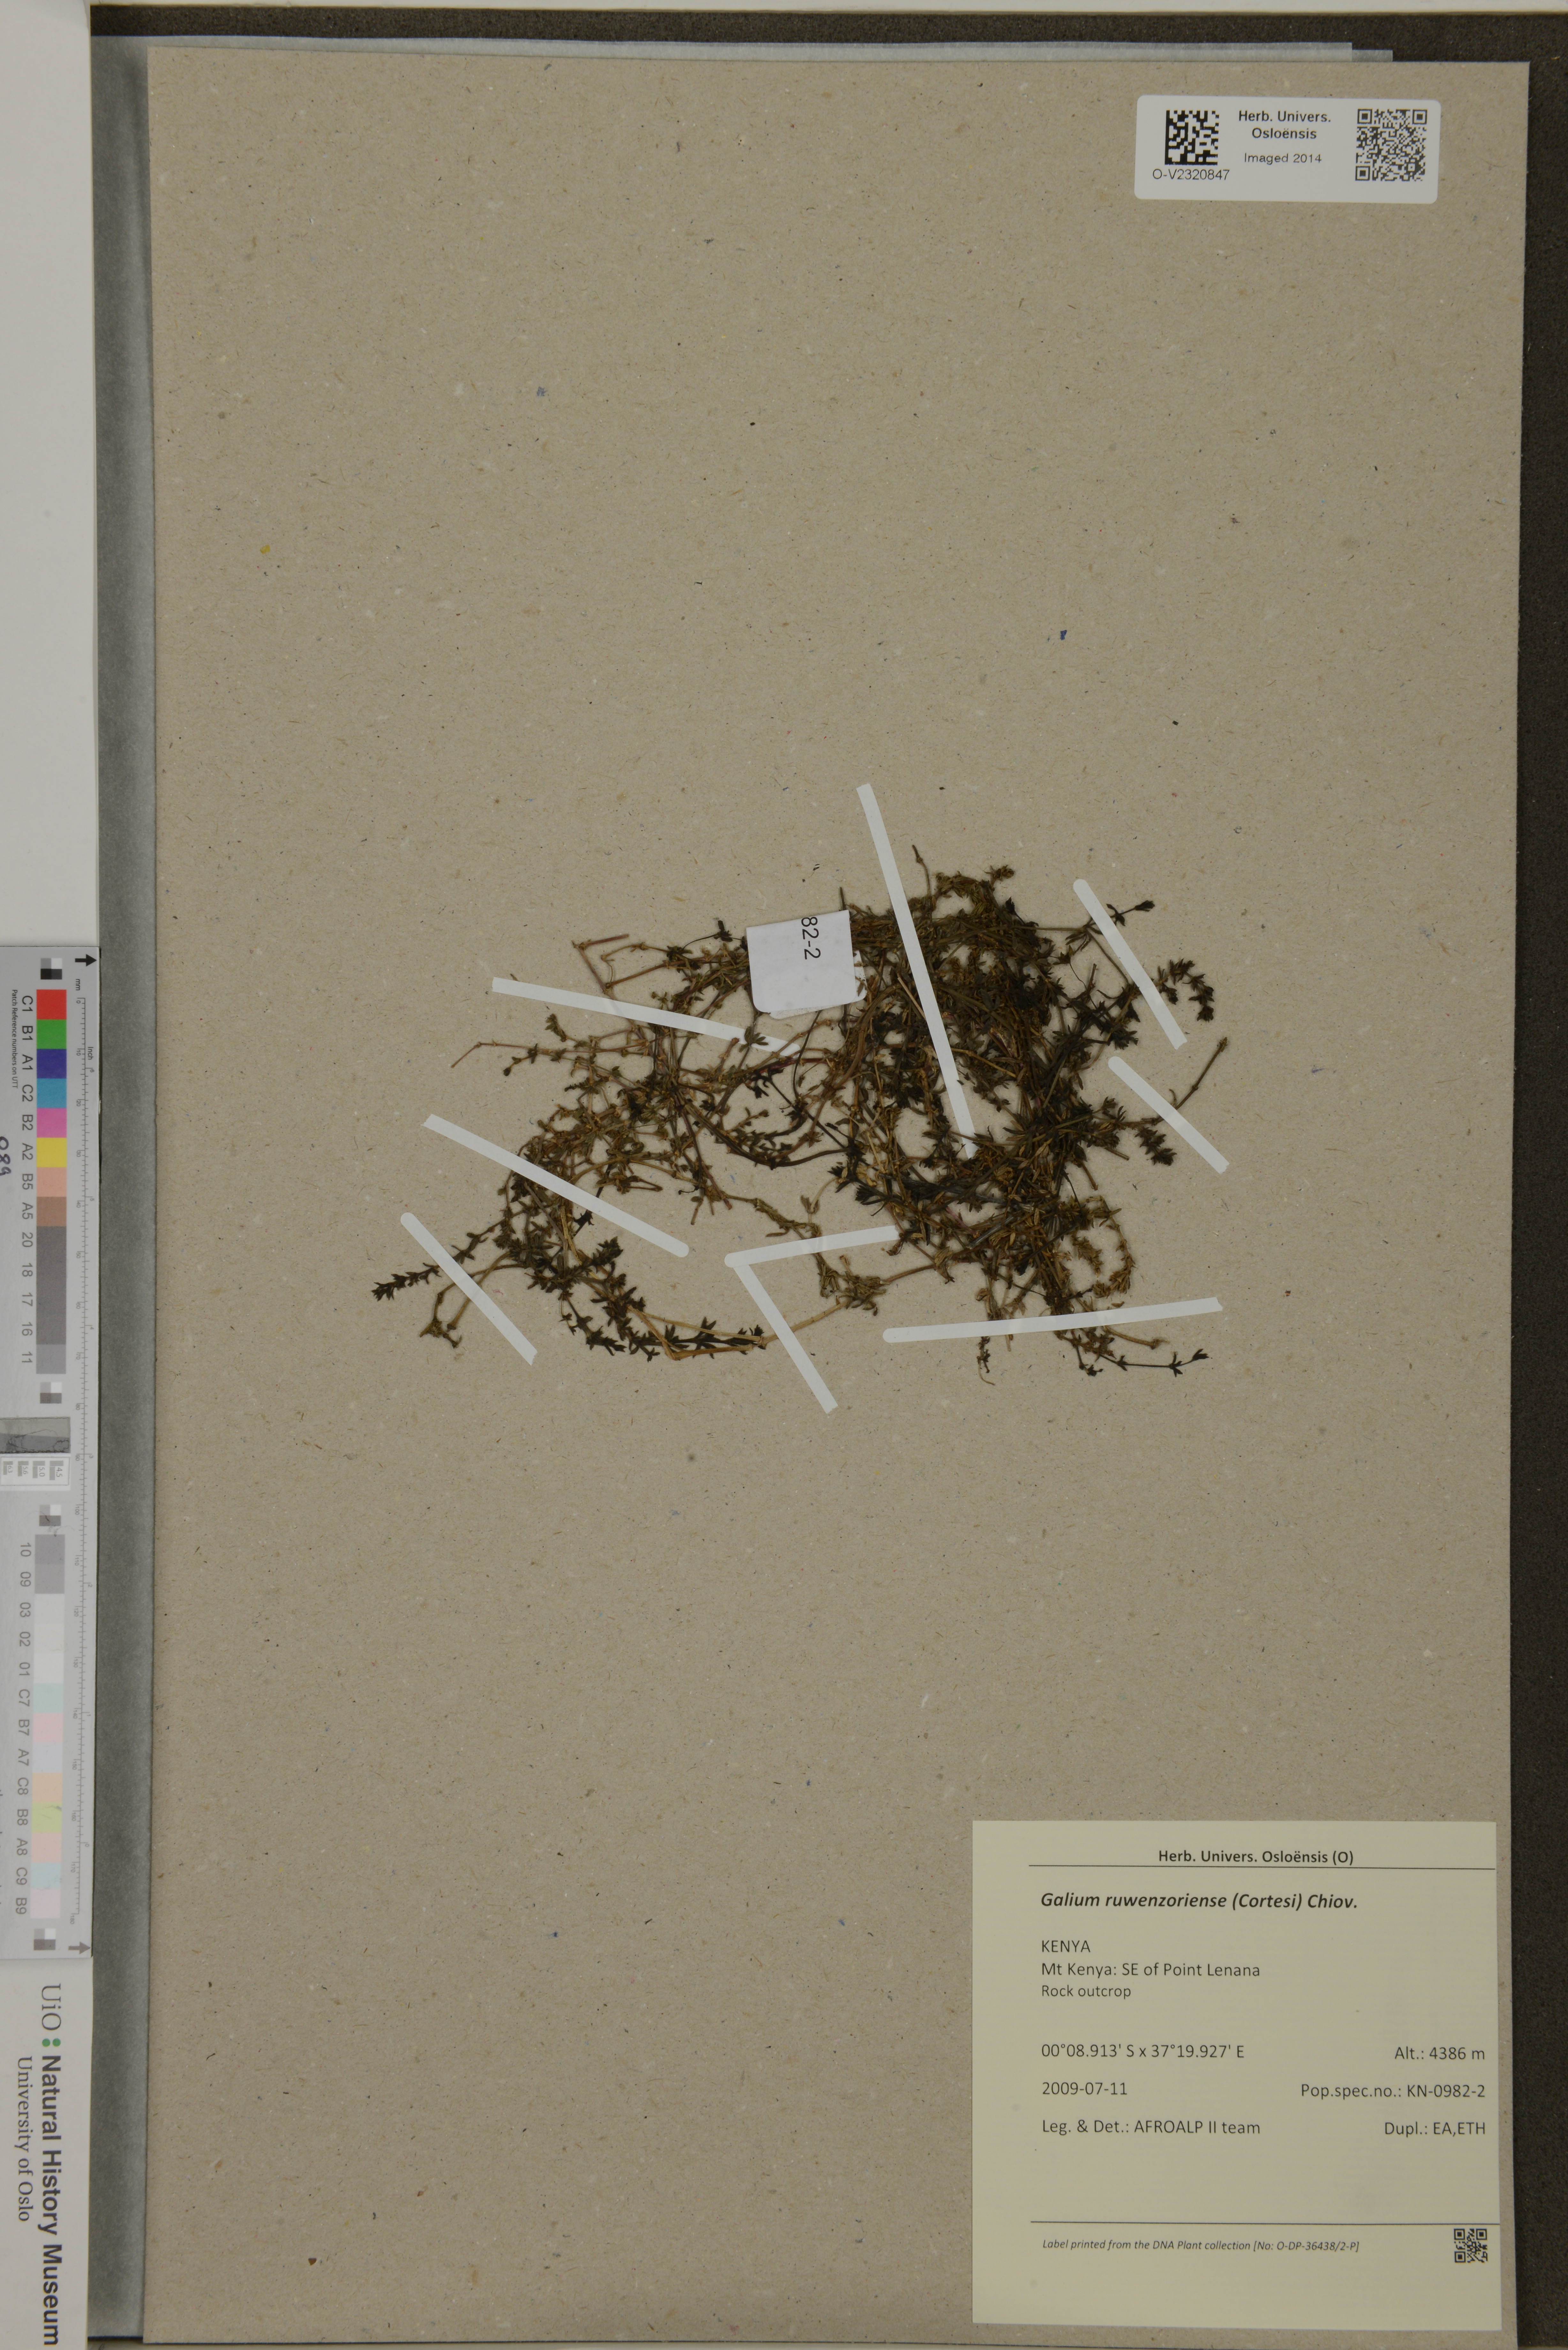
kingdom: Plantae
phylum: Tracheophyta
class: Magnoliopsida
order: Gentianales
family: Rubiaceae
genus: Galium
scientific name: Galium ruwenzoriense
